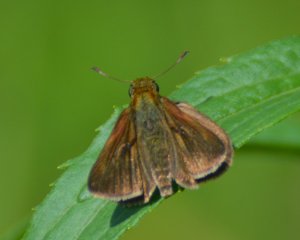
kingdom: Animalia
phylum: Arthropoda
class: Insecta
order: Lepidoptera
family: Hesperiidae
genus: Euphyes
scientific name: Euphyes vestris
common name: Dun Skipper
